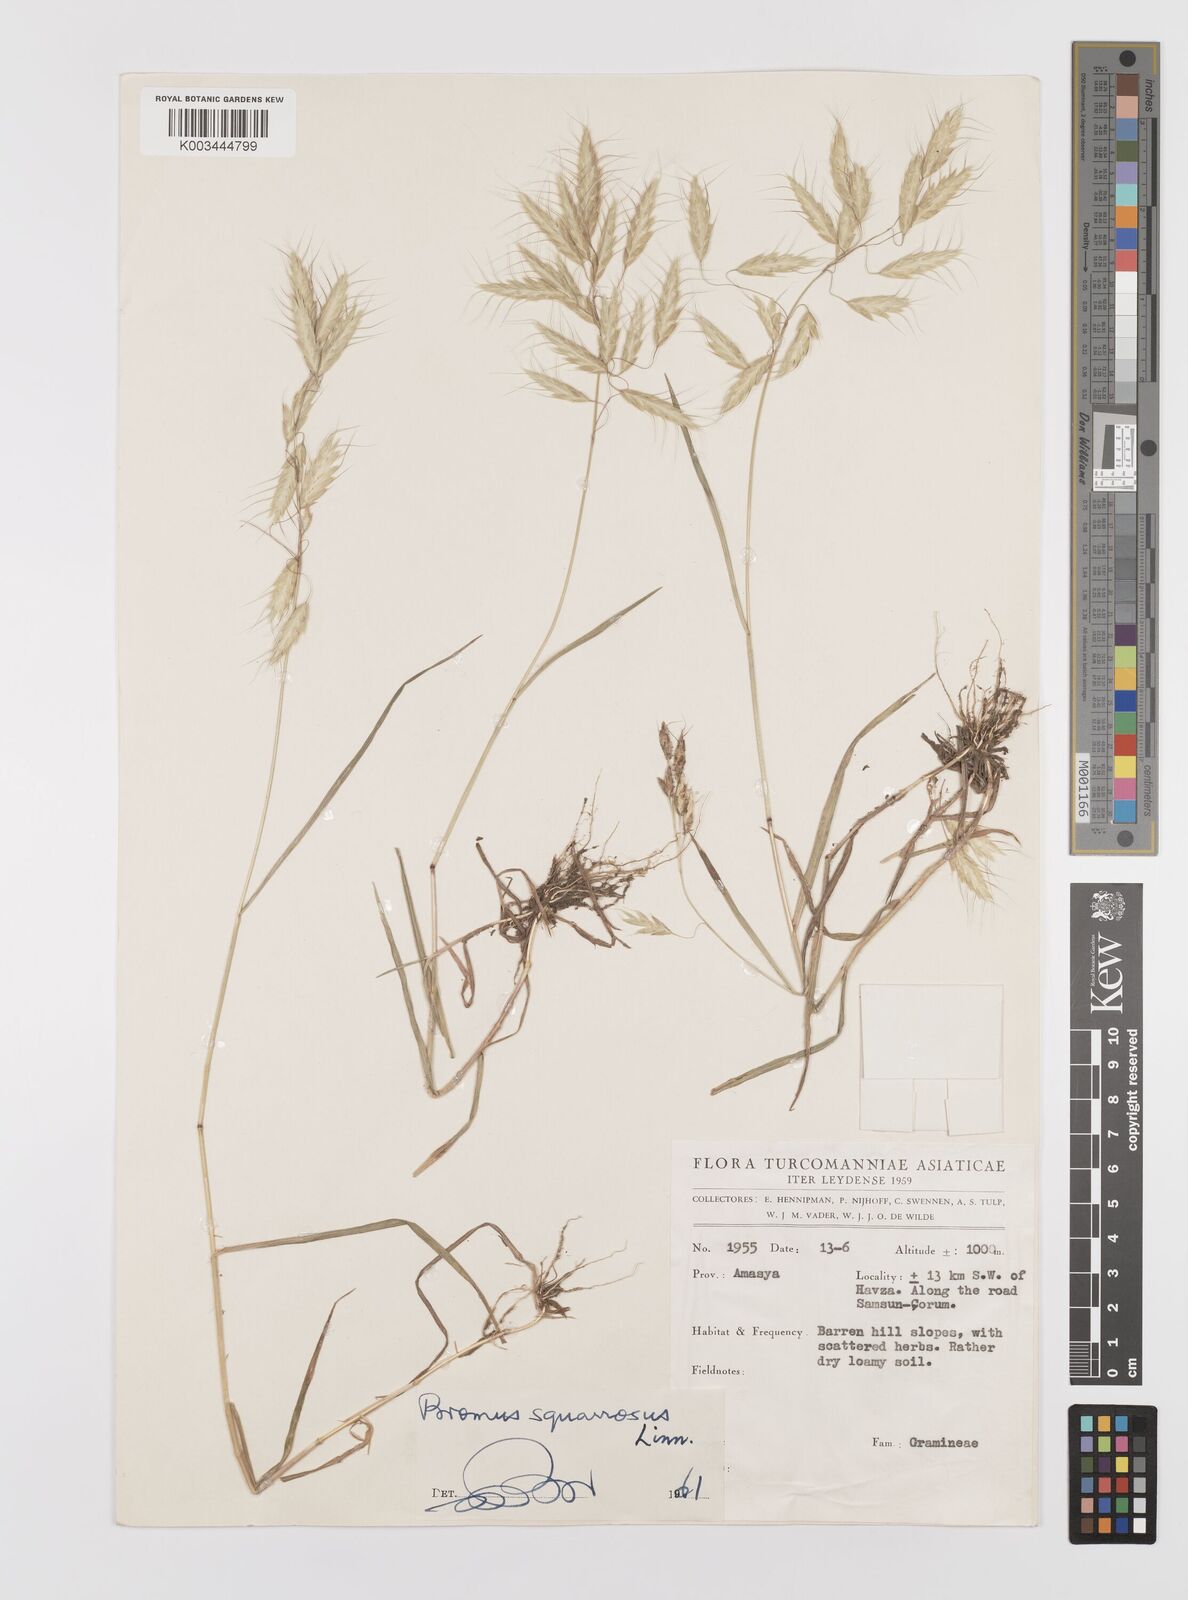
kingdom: Plantae
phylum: Tracheophyta
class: Liliopsida
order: Poales
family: Poaceae
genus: Bromus
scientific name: Bromus squarrosus
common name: Corn brome
